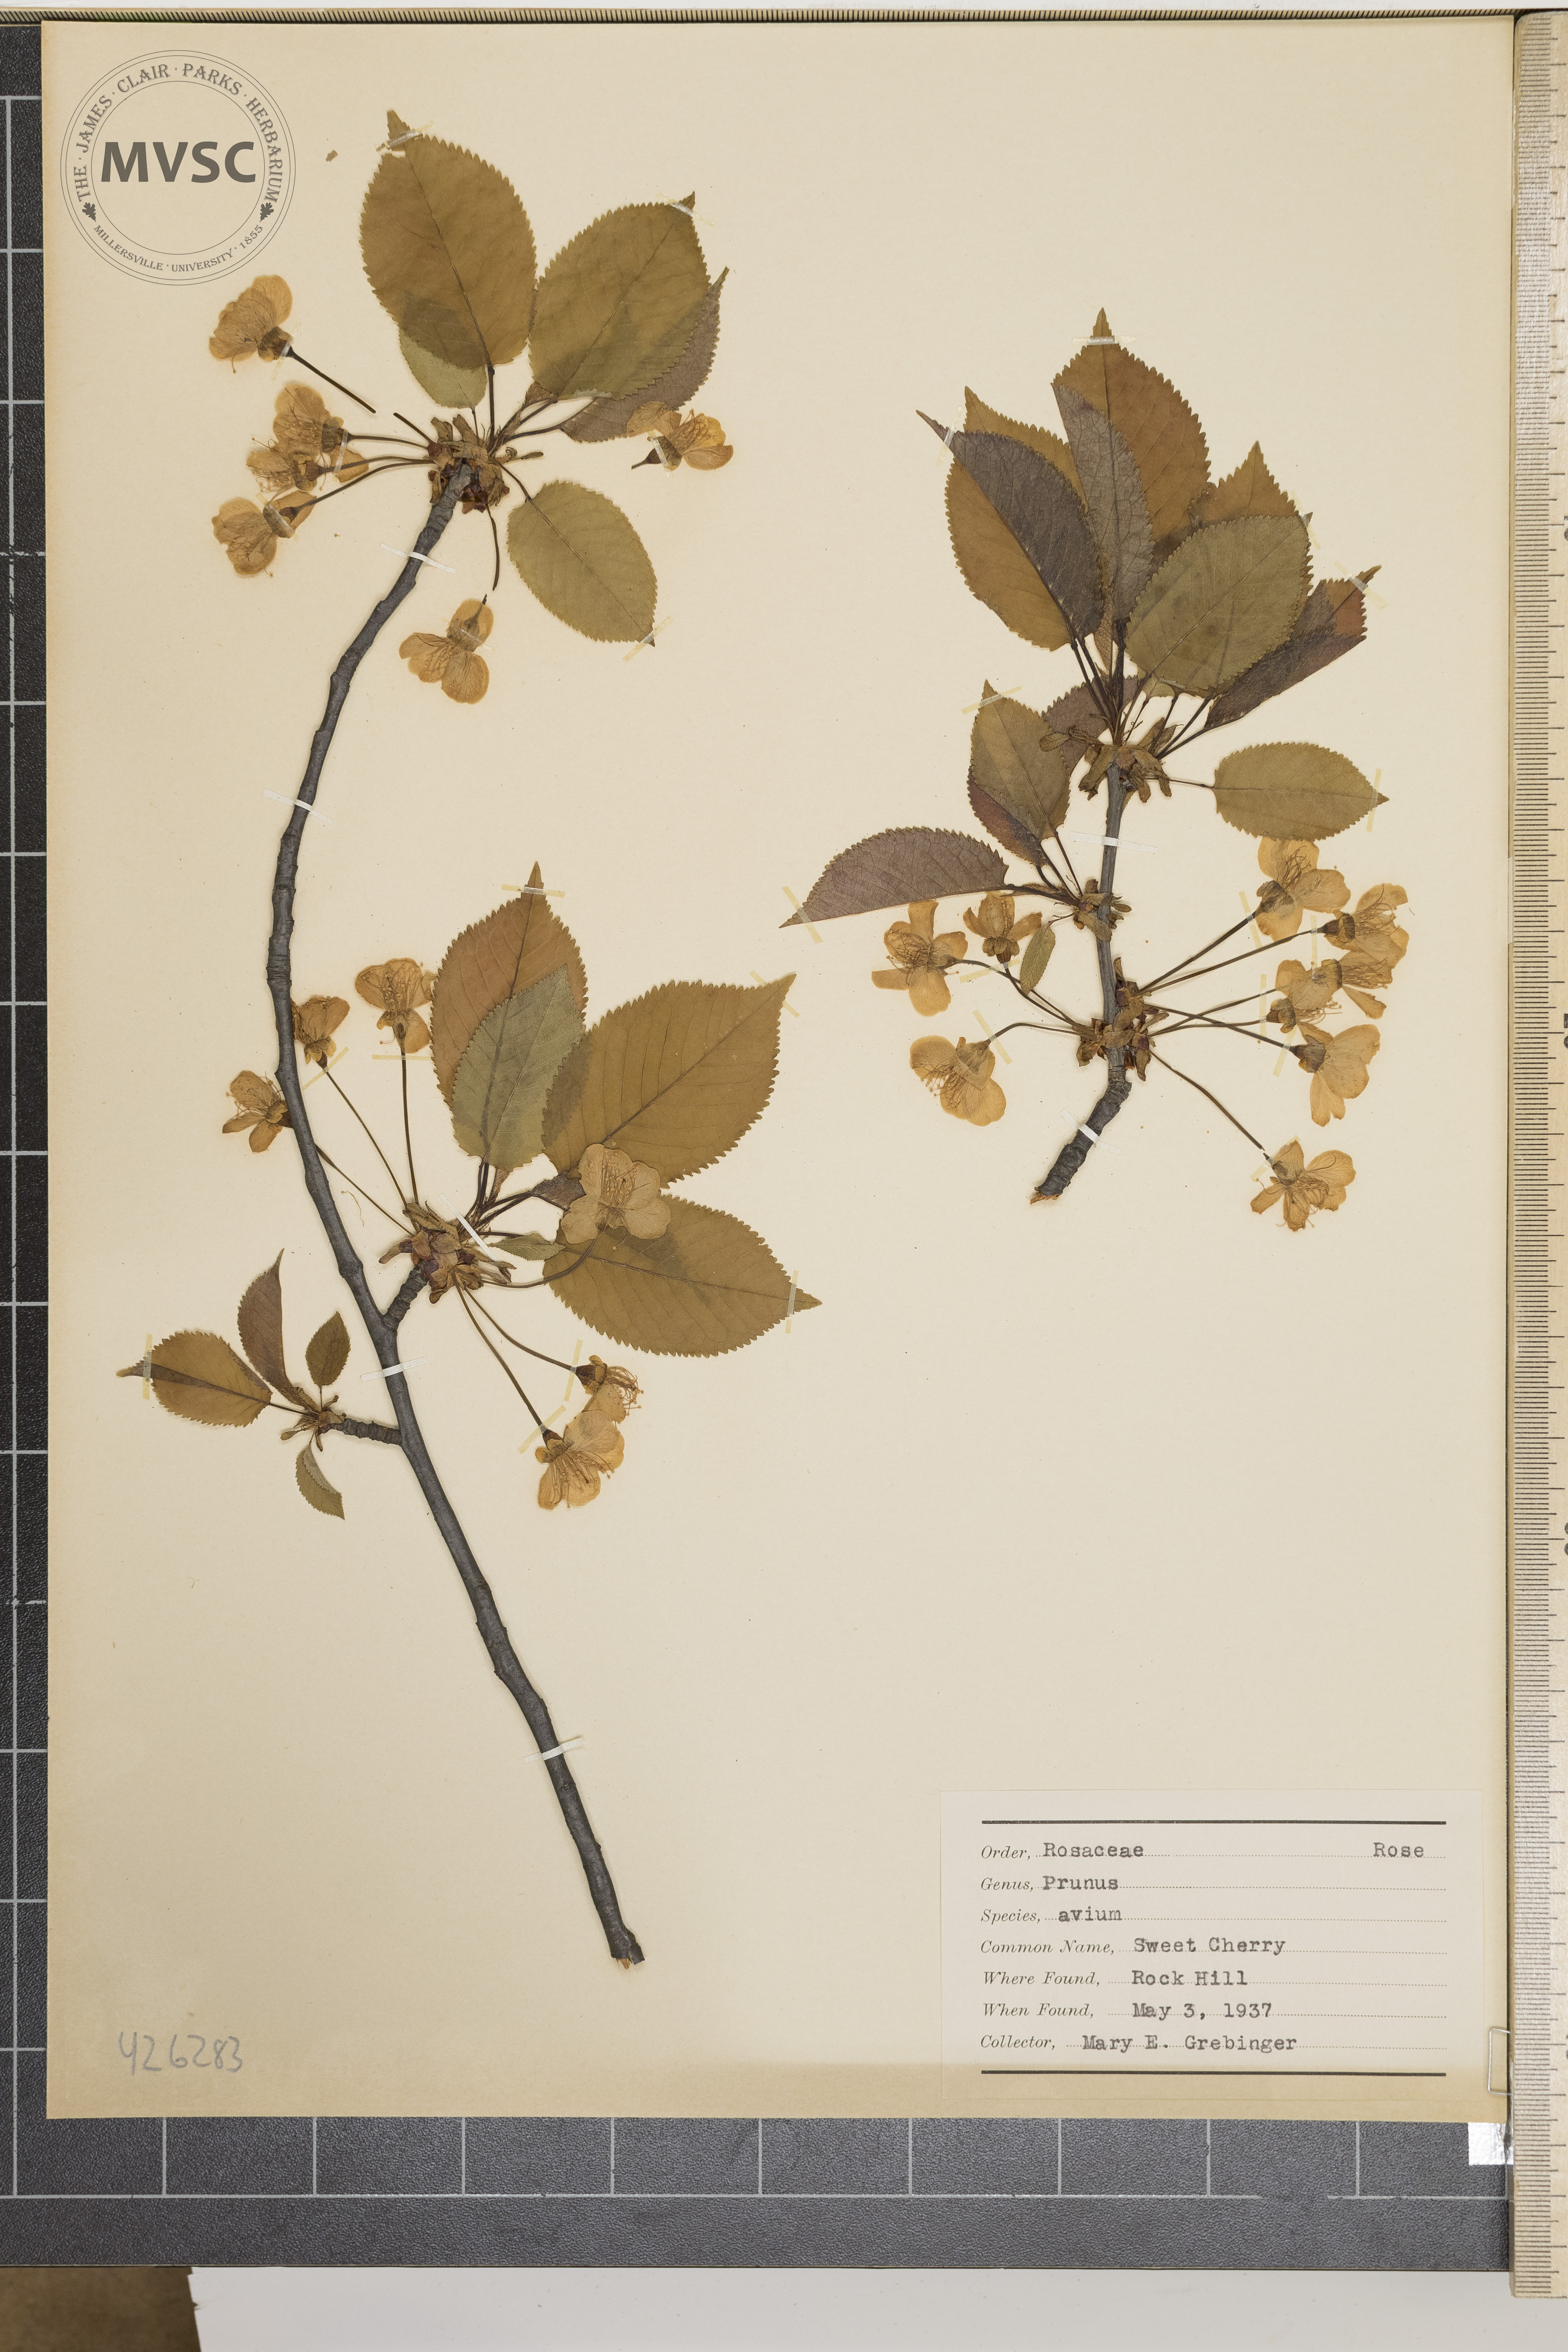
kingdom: Plantae
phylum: Tracheophyta
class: Magnoliopsida
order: Rosales
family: Rosaceae
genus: Prunus
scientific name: Prunus avium
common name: Sweet cherry
